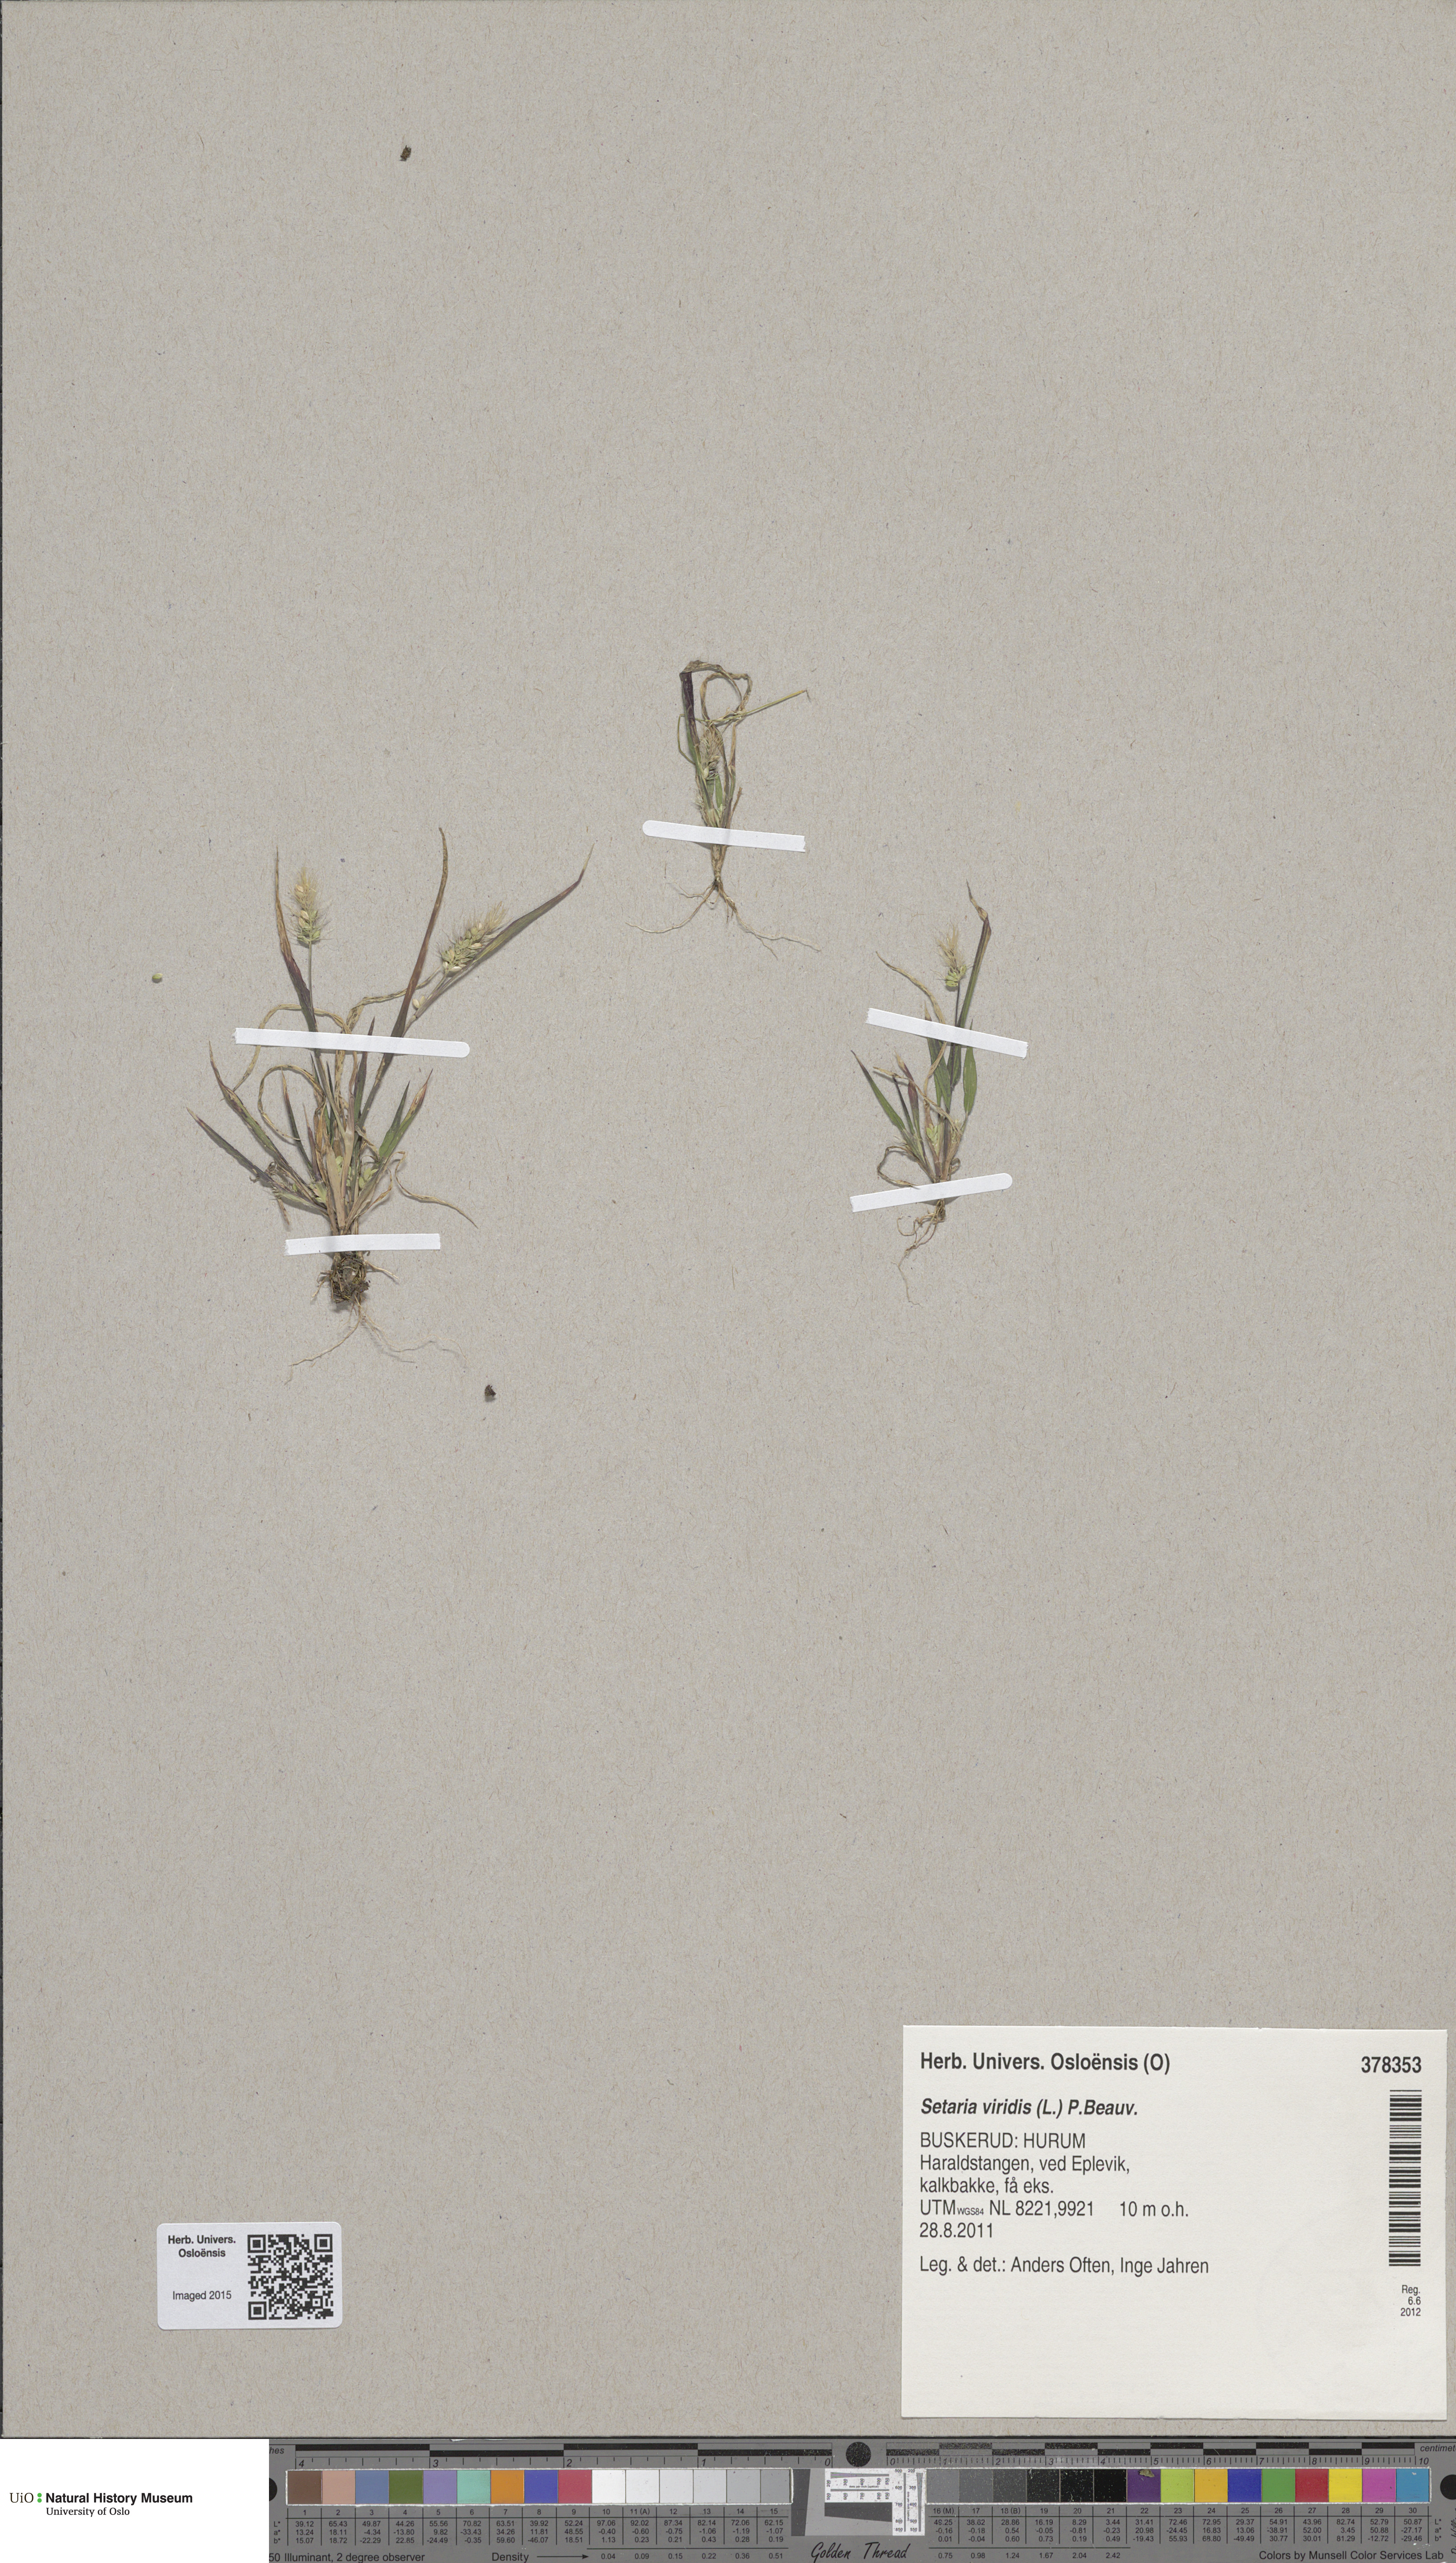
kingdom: Plantae
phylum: Tracheophyta
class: Liliopsida
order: Poales
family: Poaceae
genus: Setaria
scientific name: Setaria viridis
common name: Green bristlegrass
